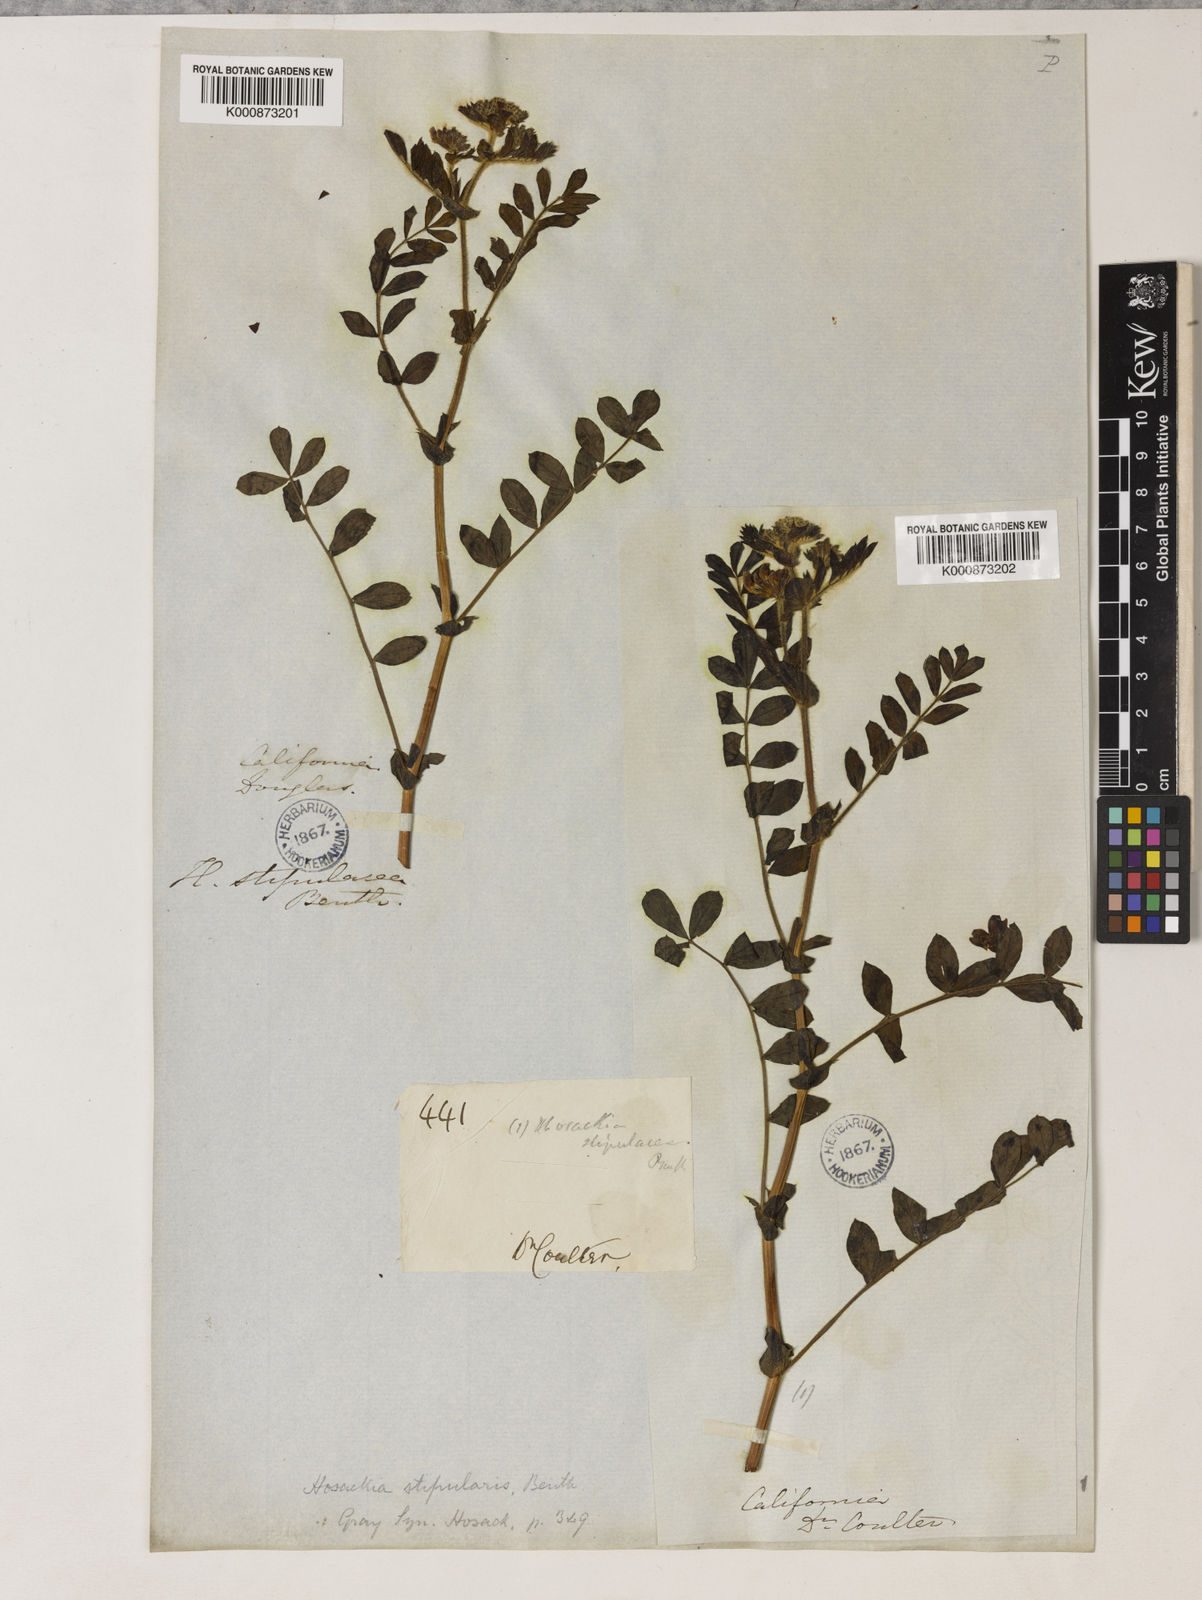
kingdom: Plantae
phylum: Tracheophyta
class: Magnoliopsida
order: Fabales
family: Fabaceae
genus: Hosackia
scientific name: Hosackia stipularis
